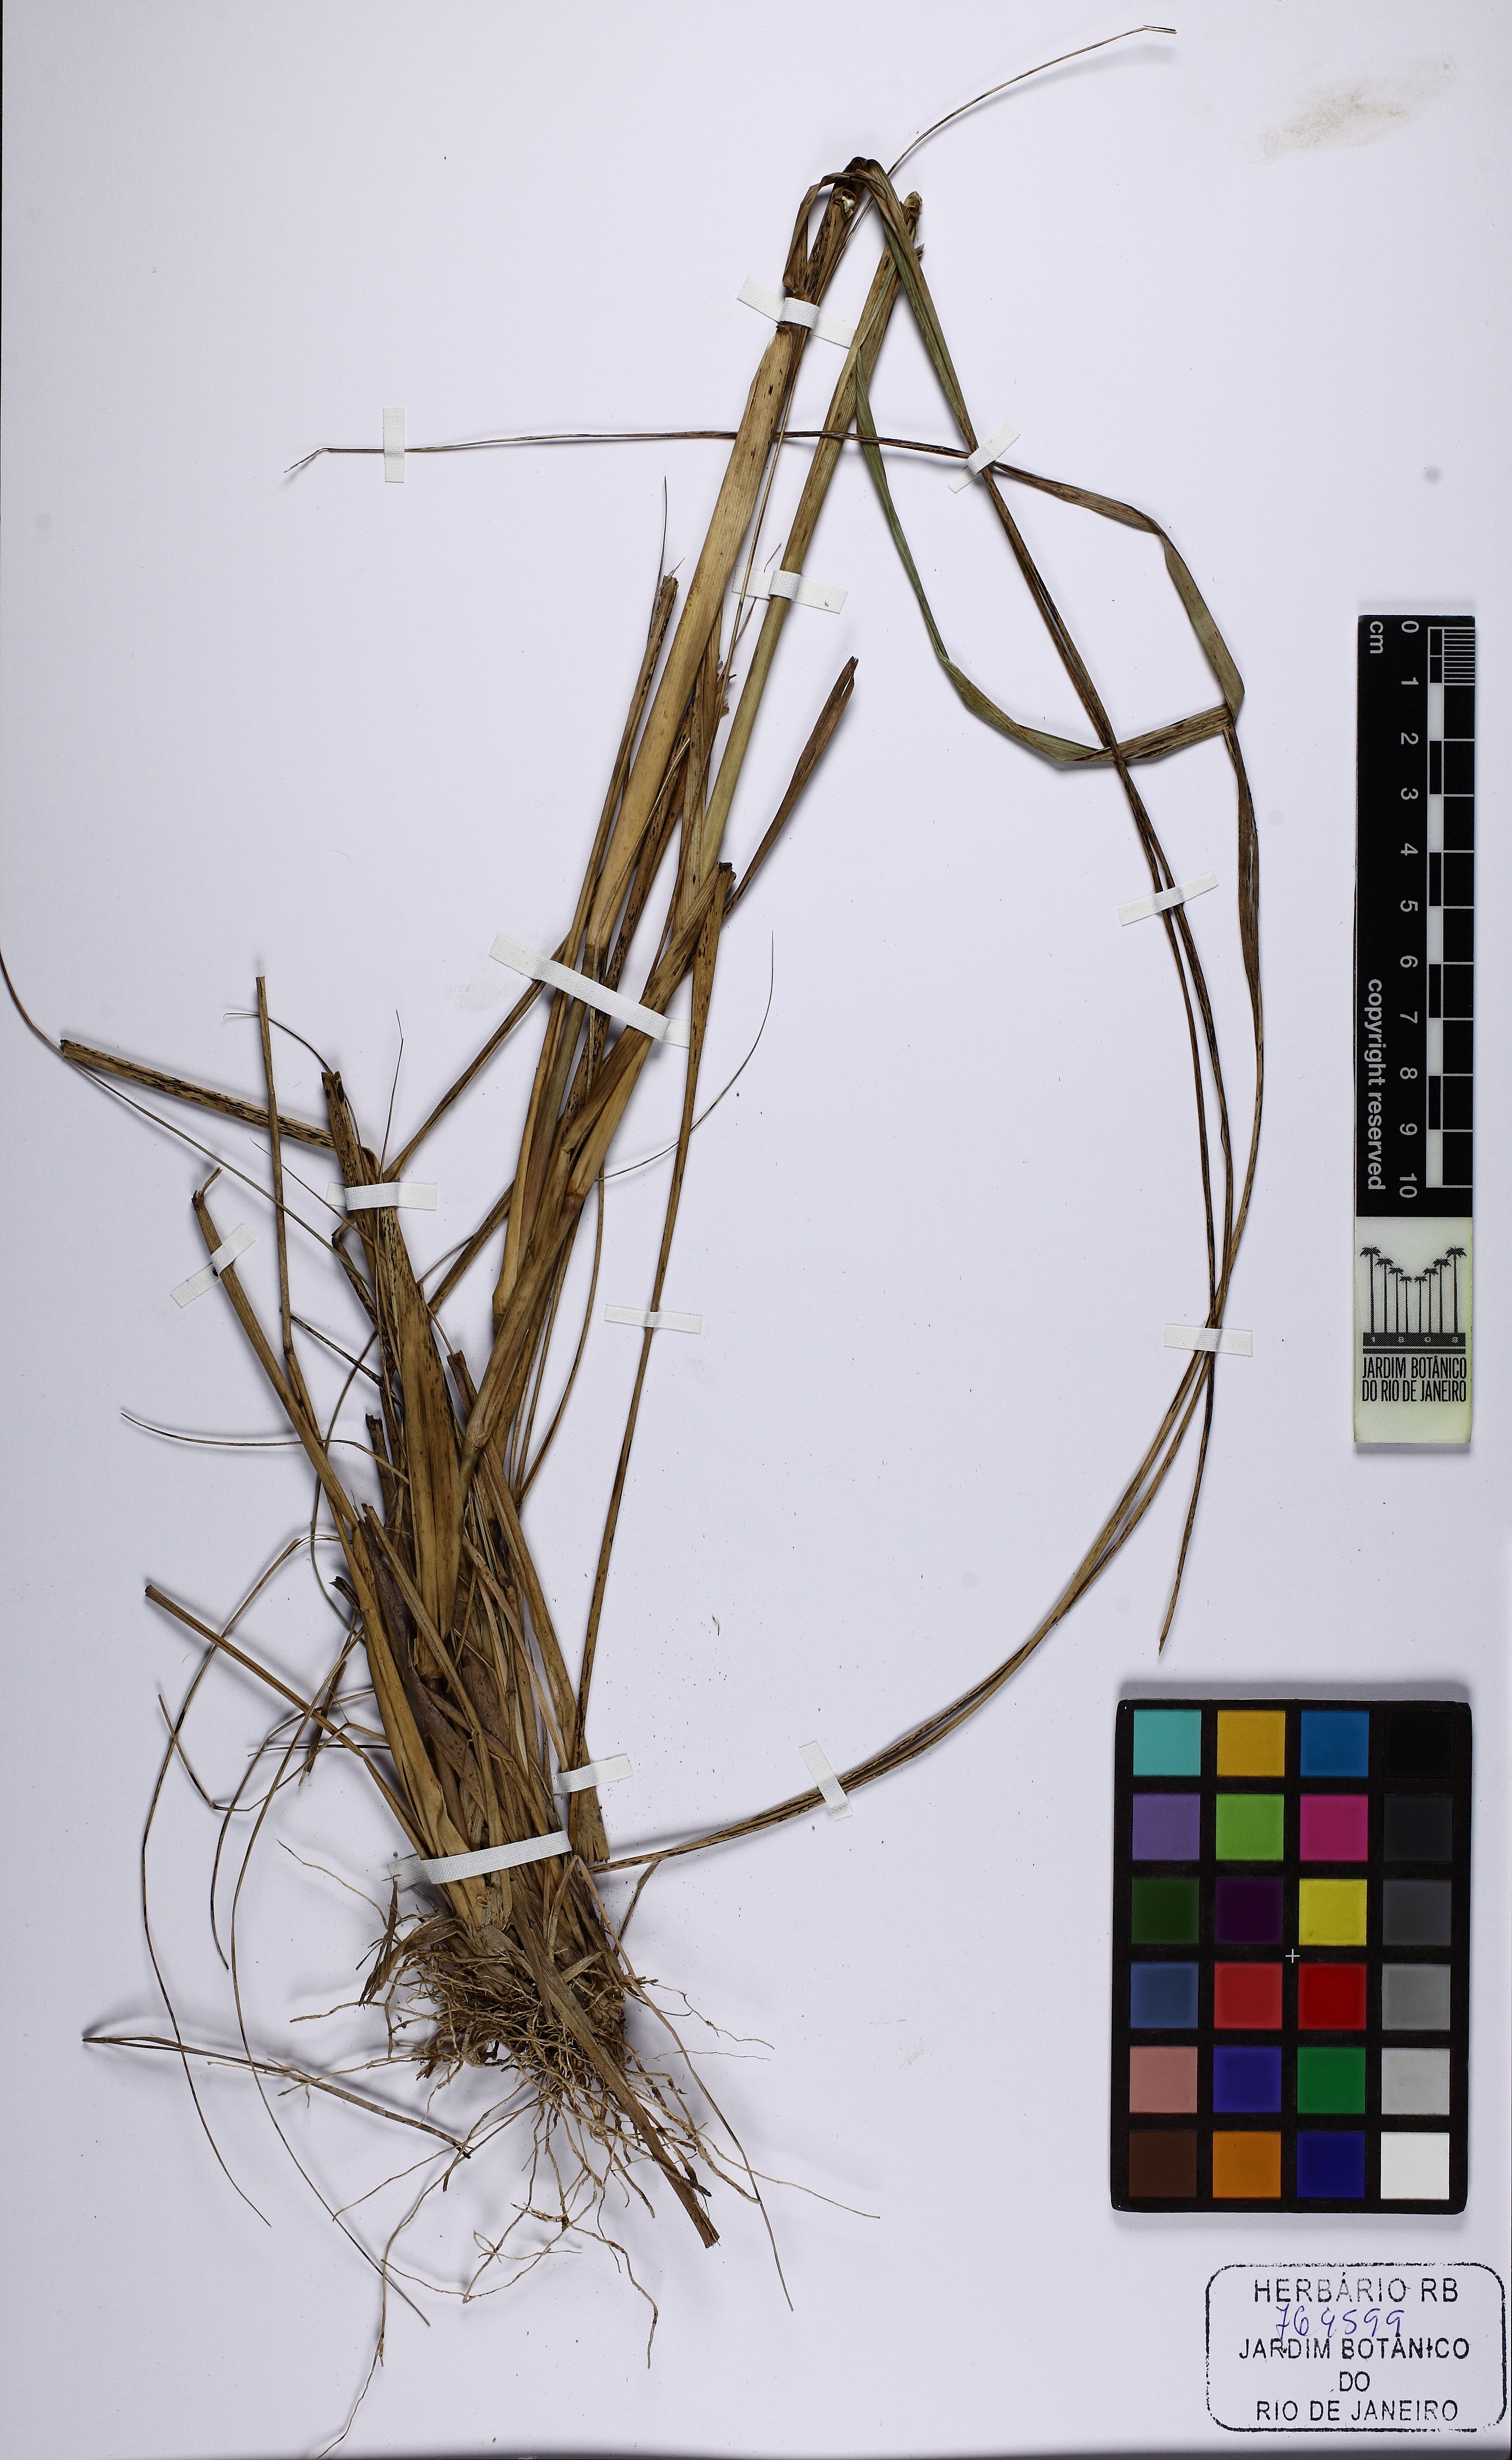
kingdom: Plantae
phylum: Tracheophyta
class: Liliopsida
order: Poales
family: Poaceae
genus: Aristida
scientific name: Aristida riparia
